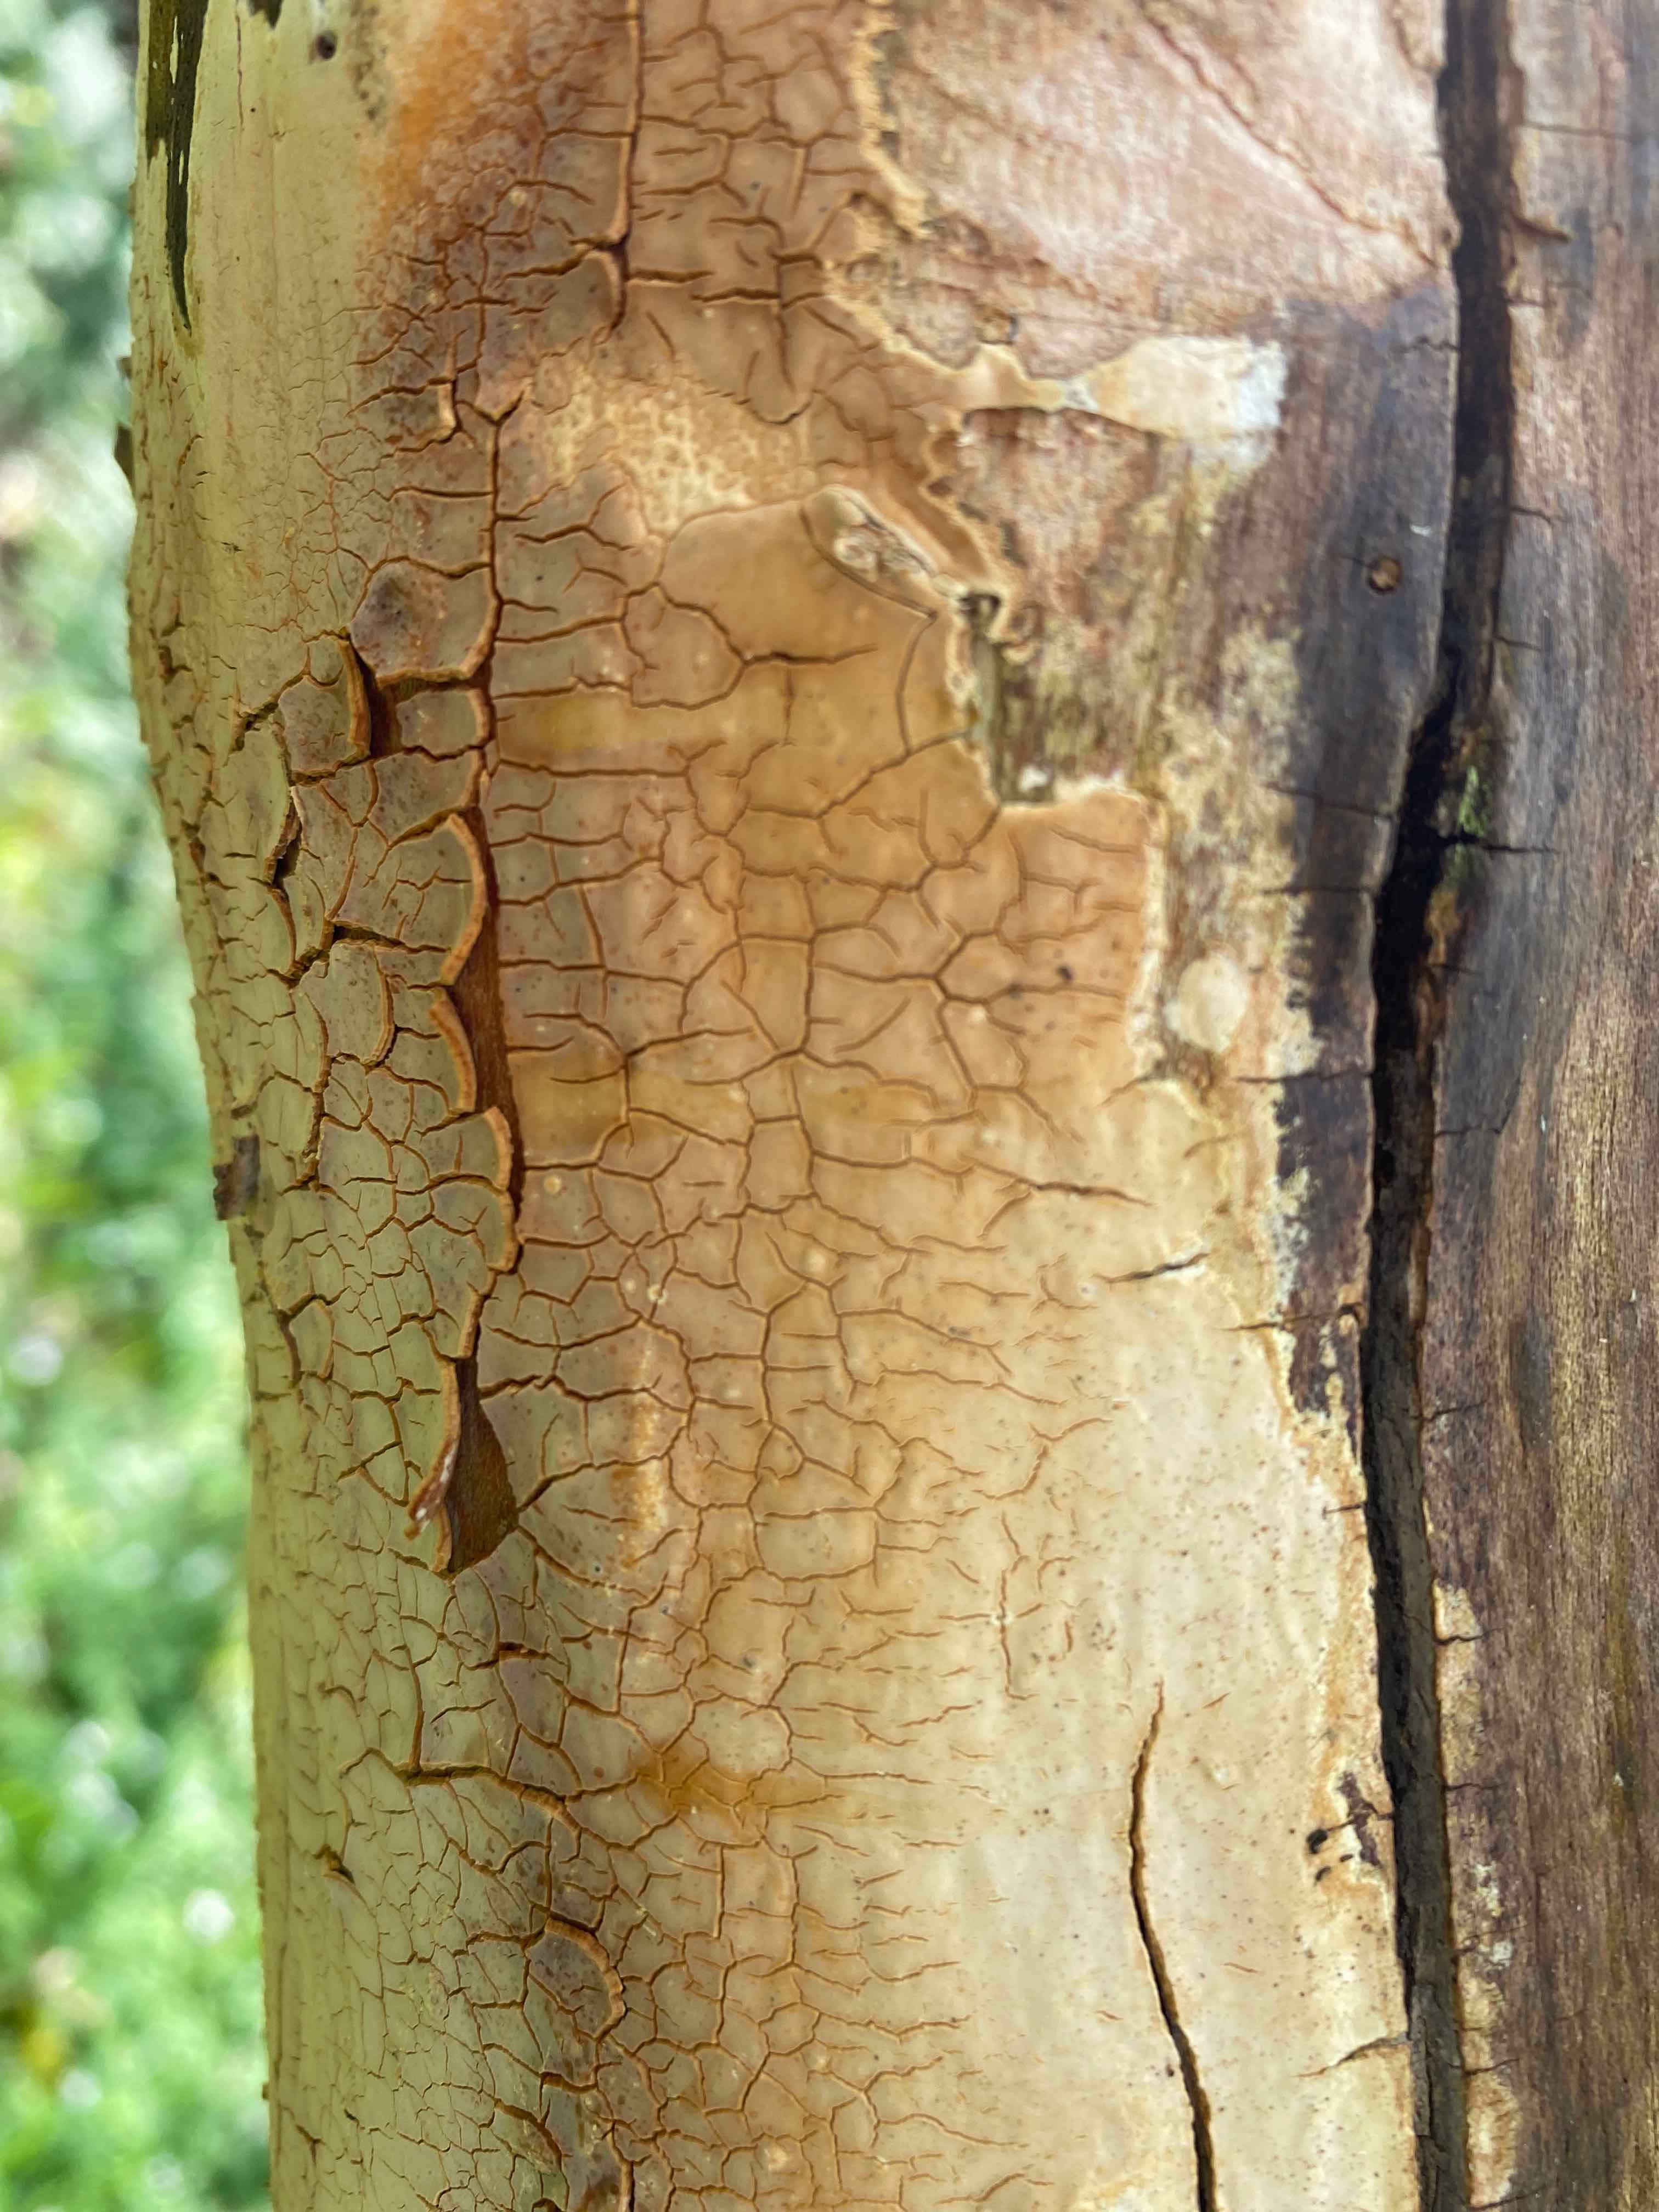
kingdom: Fungi
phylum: Basidiomycota
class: Agaricomycetes
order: Russulales
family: Peniophoraceae
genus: Scytinostroma
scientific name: Scytinostroma hemidichophyticum
